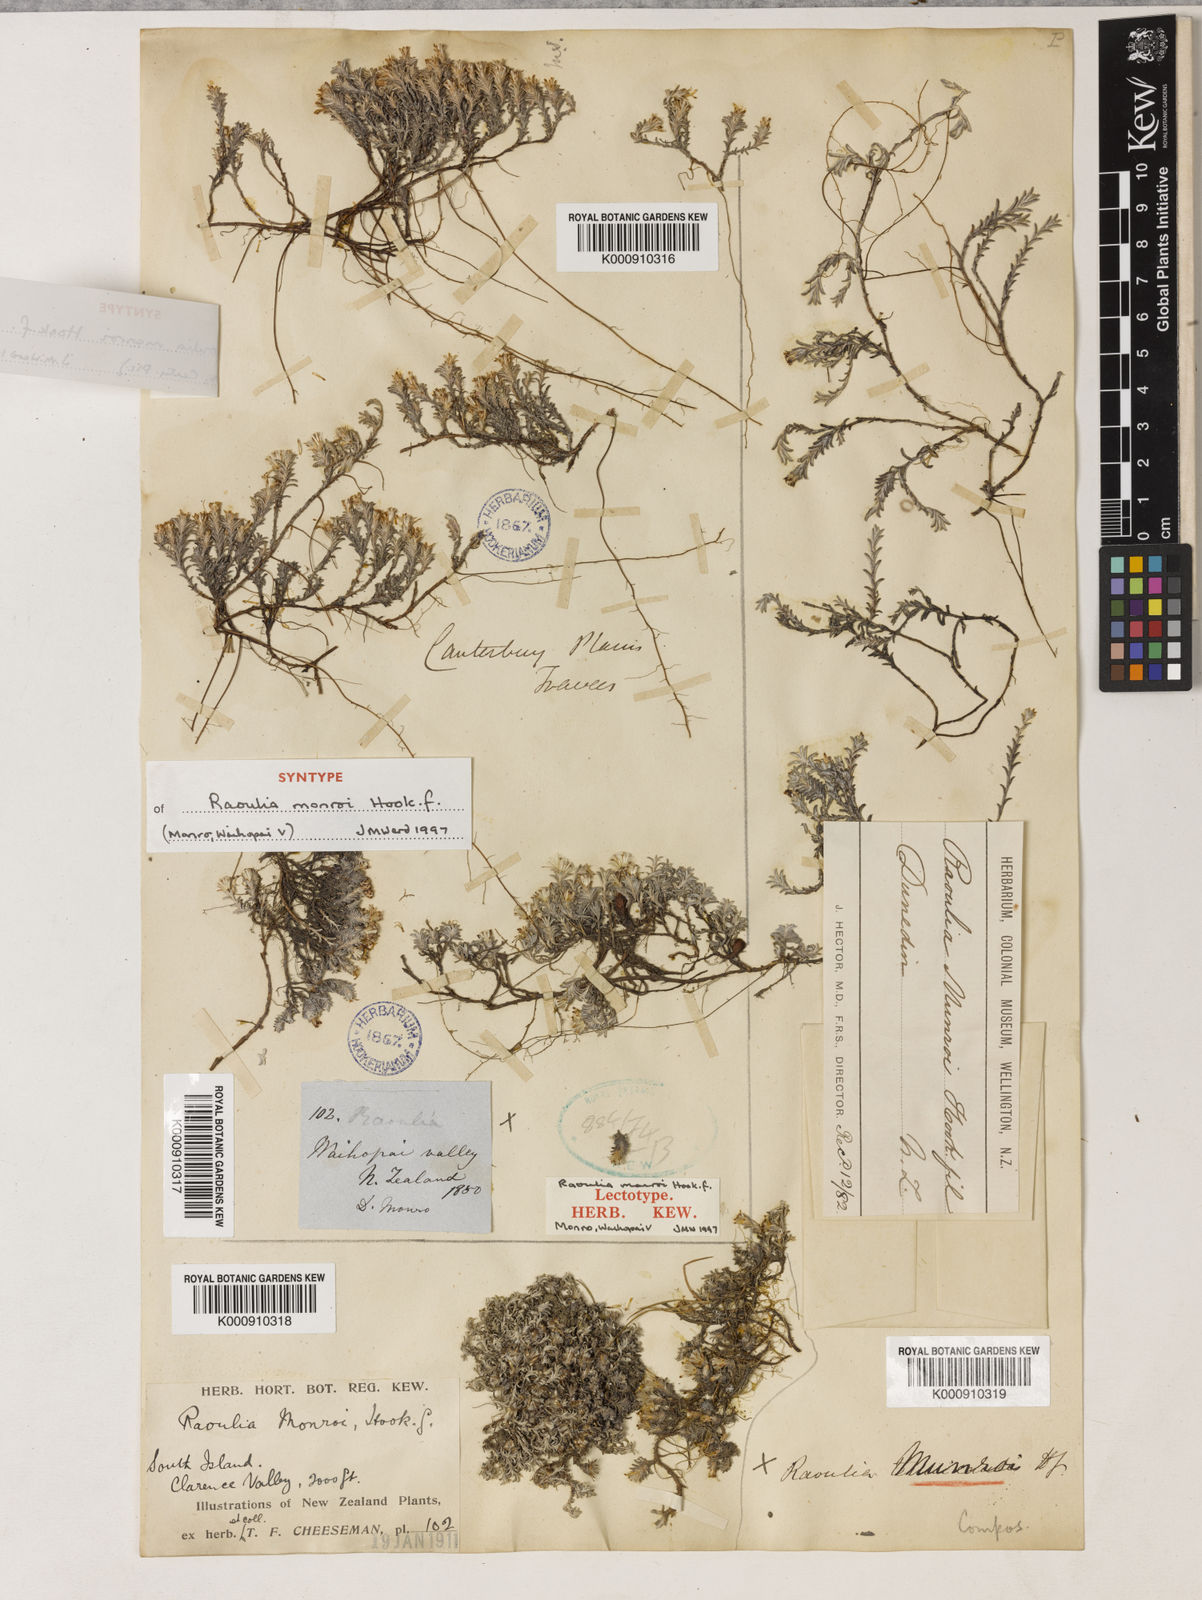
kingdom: Plantae
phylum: Tracheophyta
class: Magnoliopsida
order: Asterales
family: Asteraceae
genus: Raoulia
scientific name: Raoulia monroi
